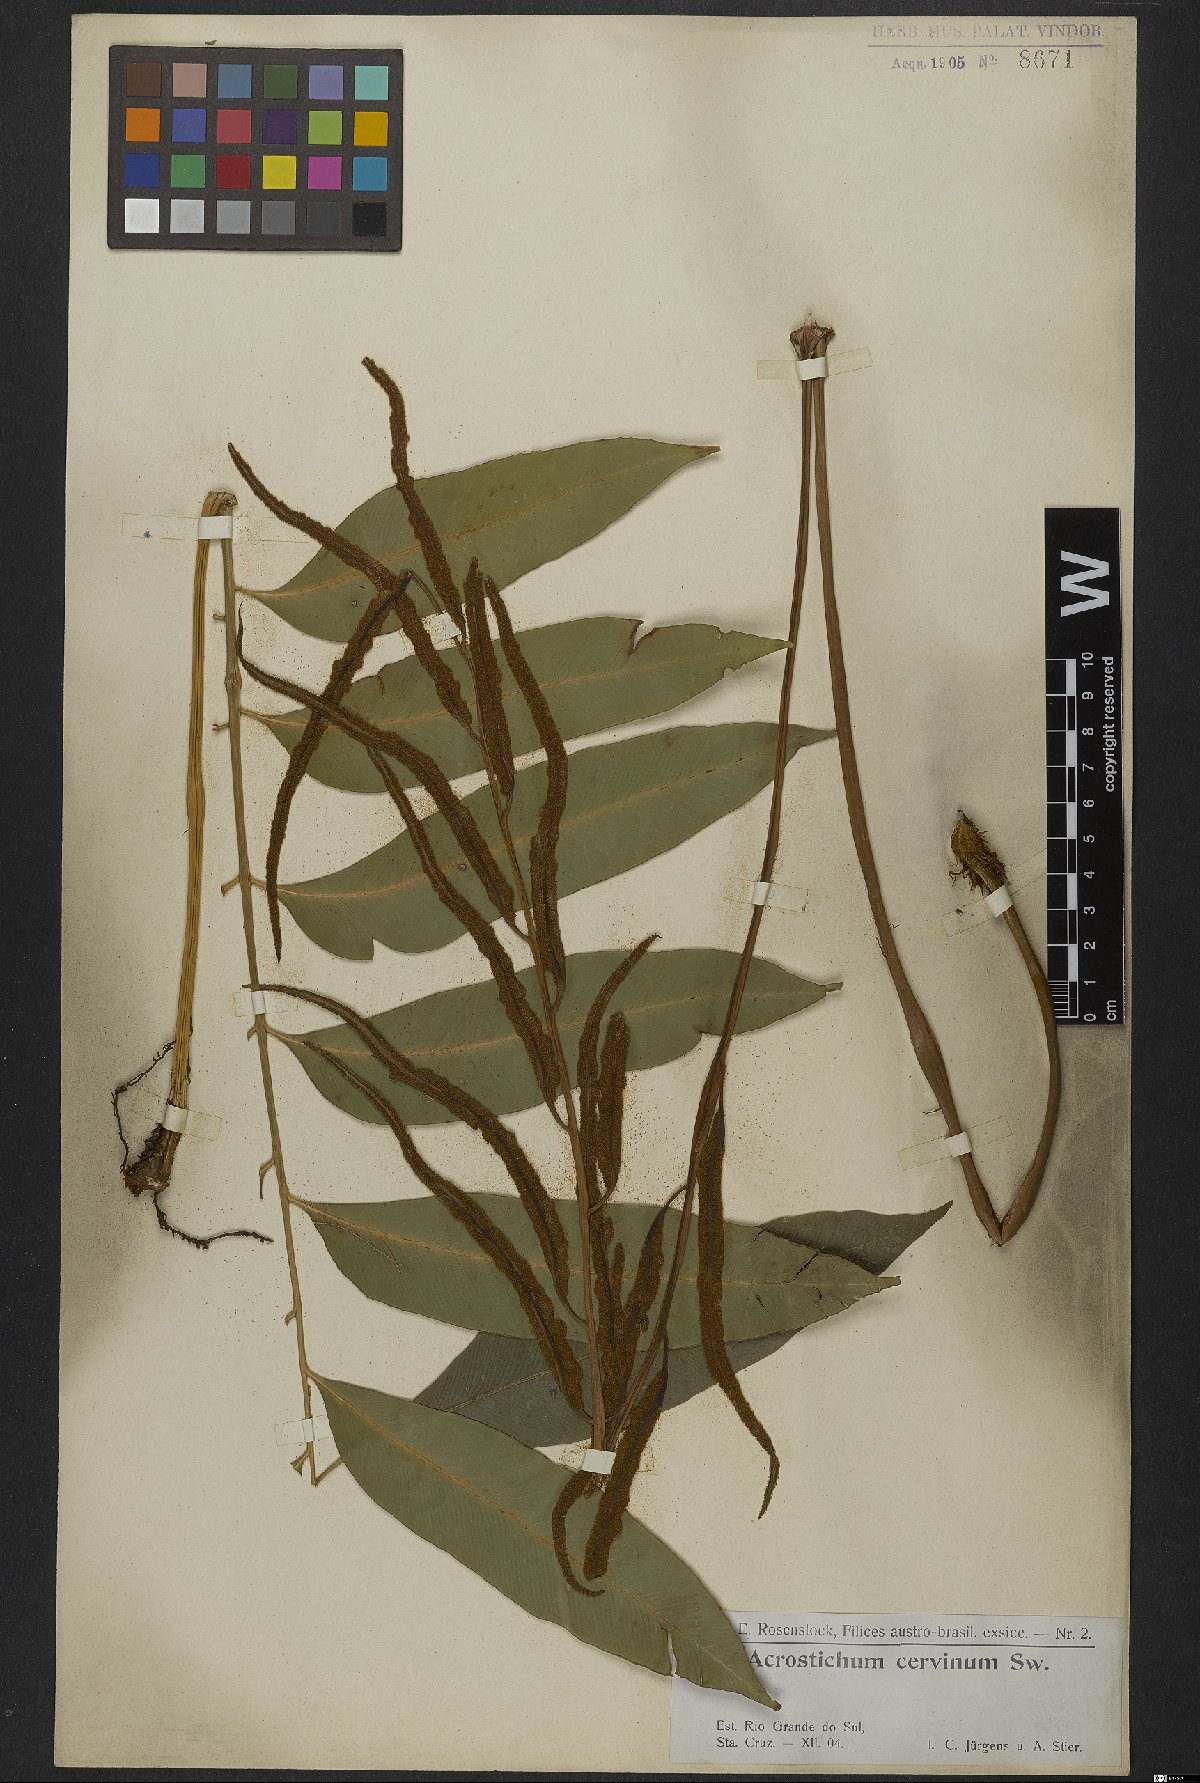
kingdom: Plantae
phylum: Tracheophyta
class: Polypodiopsida
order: Polypodiales
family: Dryopteridaceae
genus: Olfersia
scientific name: Olfersia cervina
